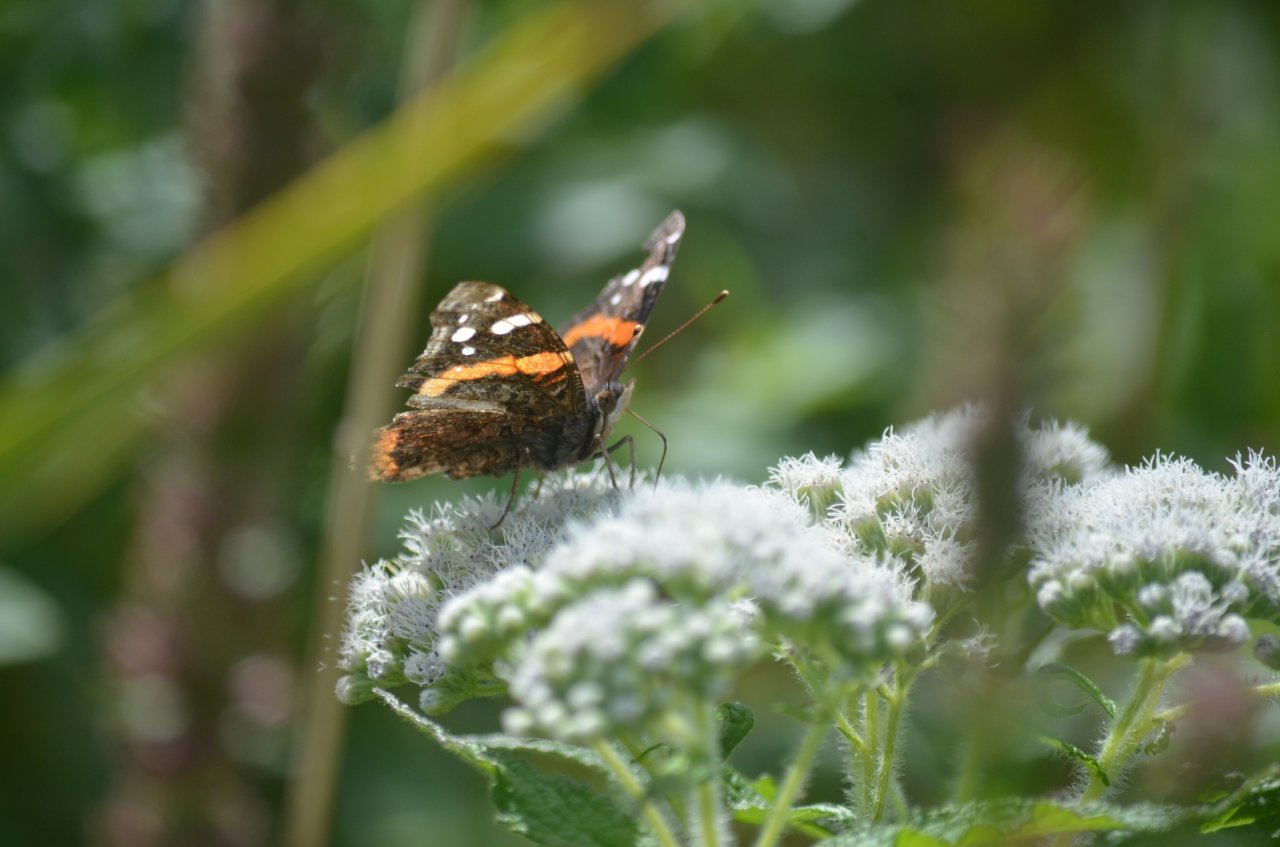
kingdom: Animalia
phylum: Arthropoda
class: Insecta
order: Lepidoptera
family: Nymphalidae
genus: Vanessa
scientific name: Vanessa atalanta
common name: Red Admiral
